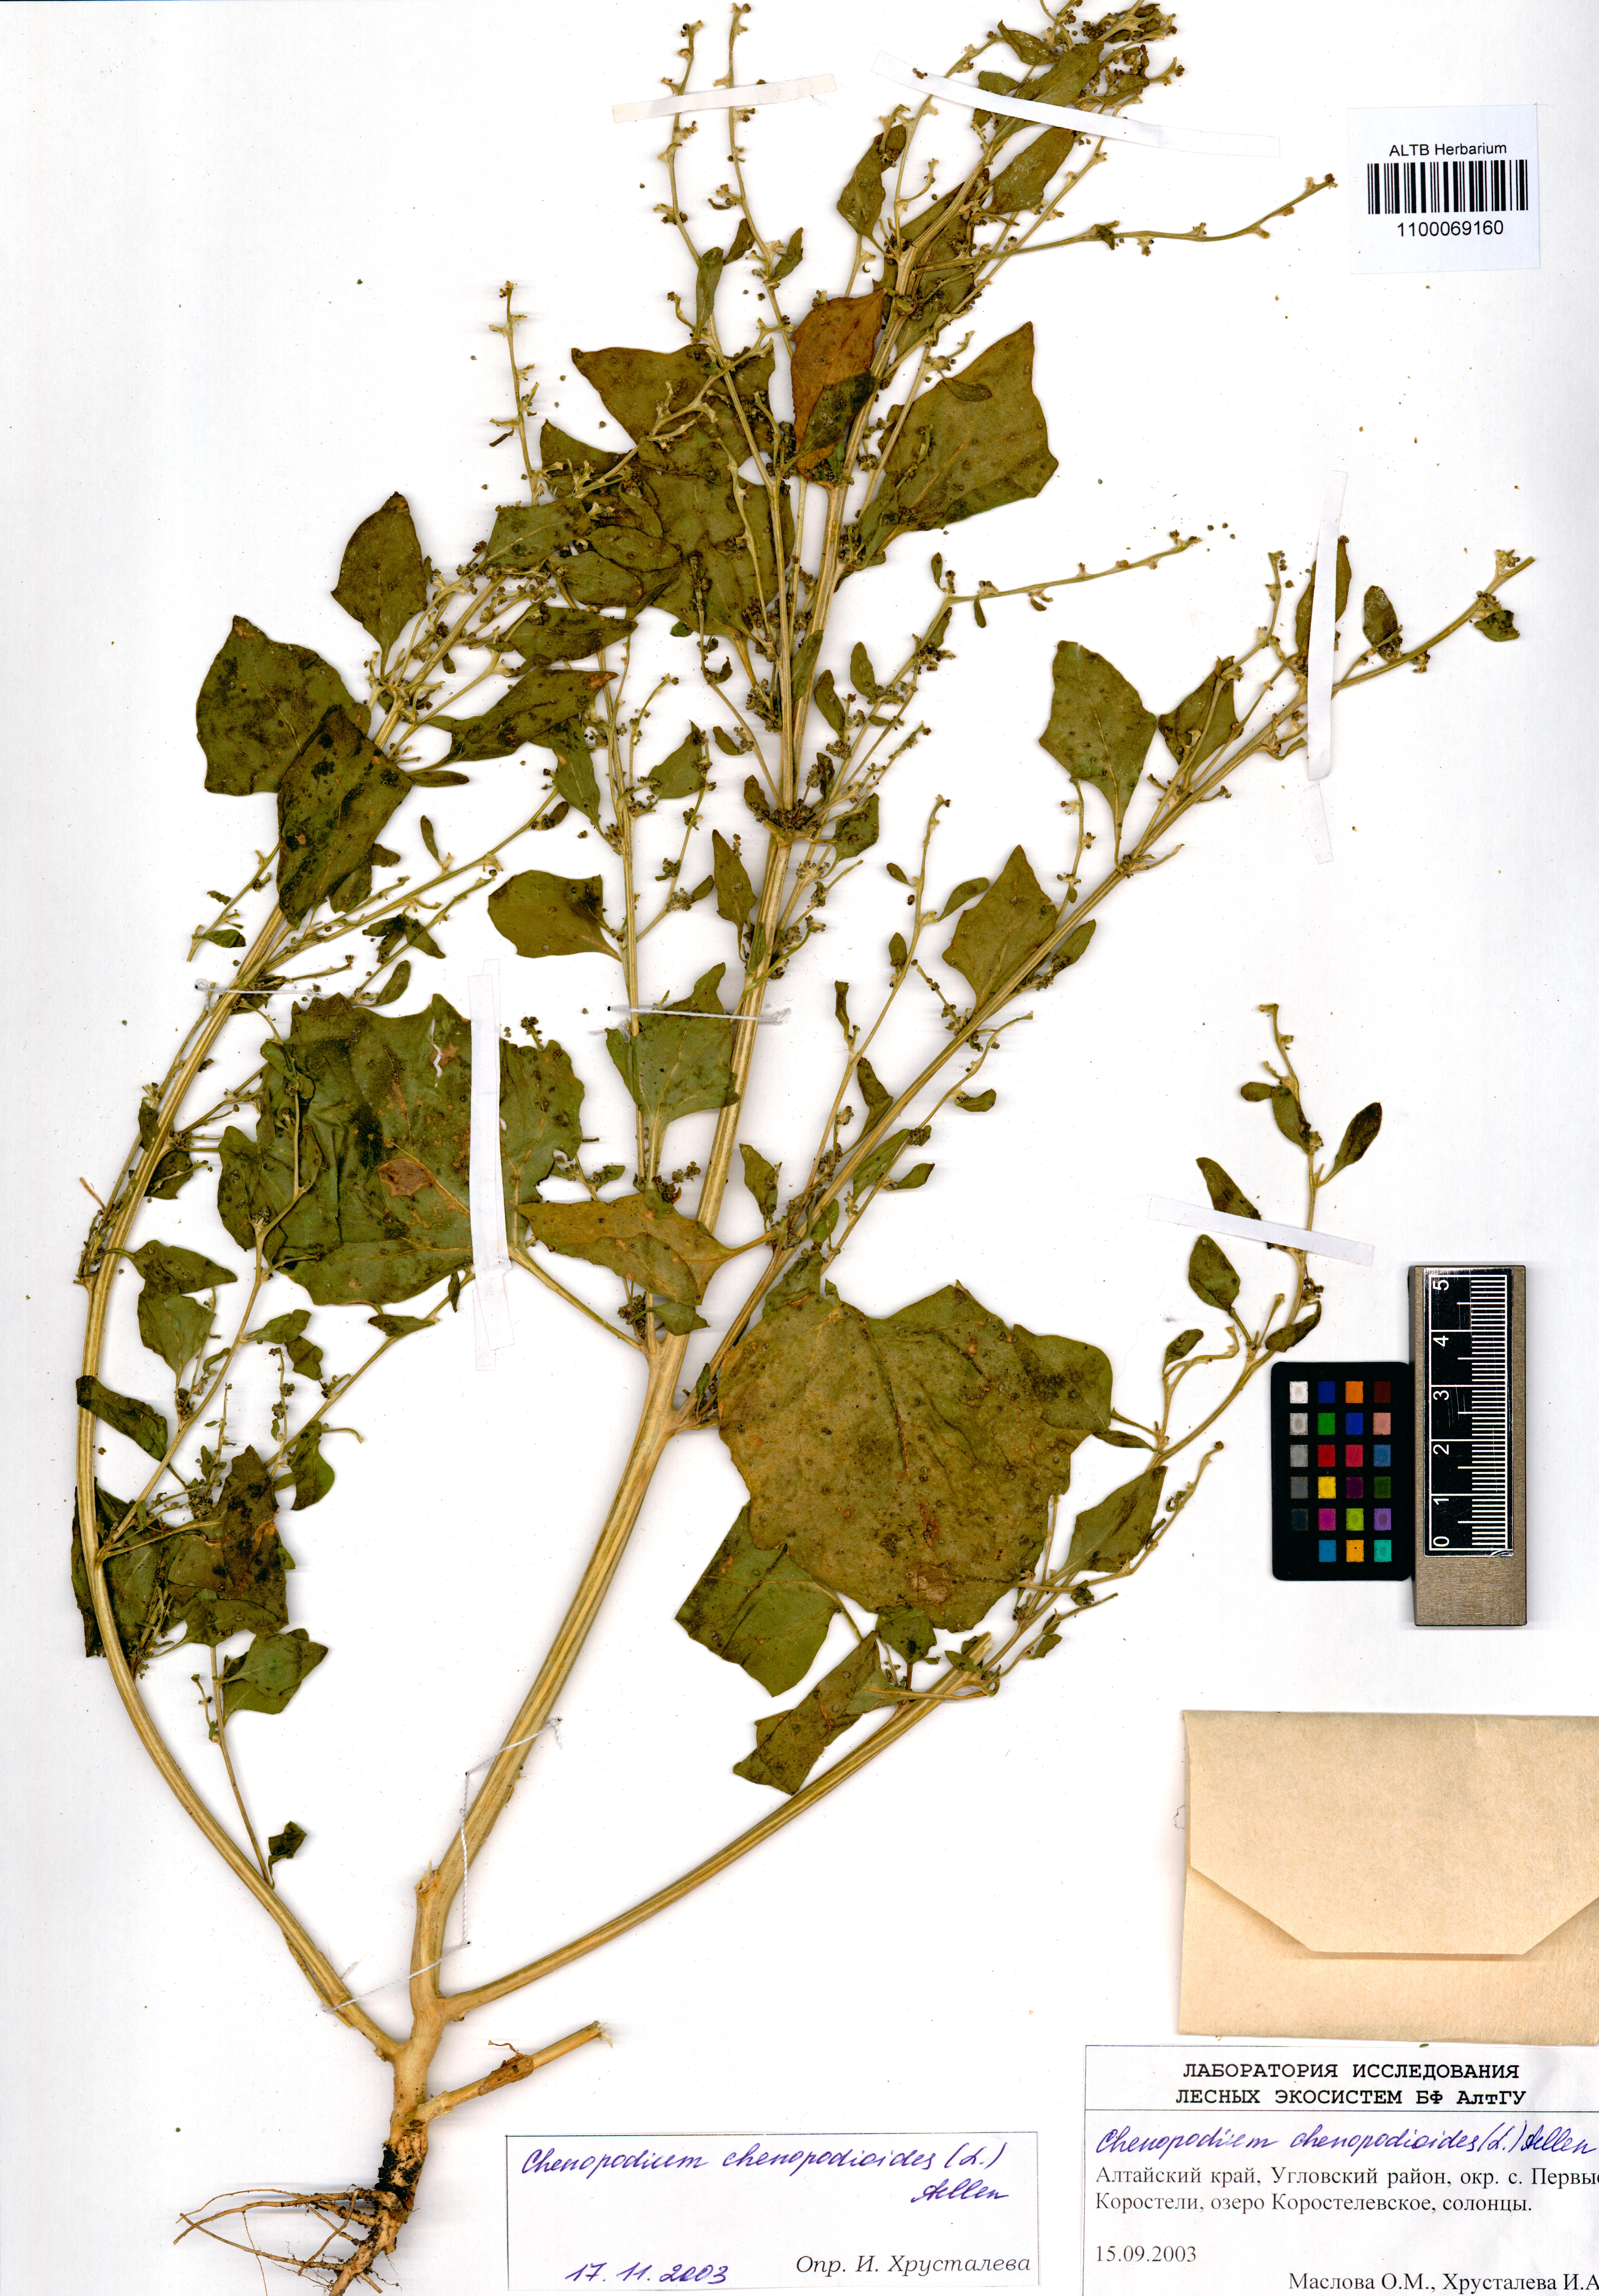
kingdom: Plantae
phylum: Tracheophyta
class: Magnoliopsida
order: Caryophyllales
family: Amaranthaceae
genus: Oxybasis
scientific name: Oxybasis chenopodioides
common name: Saltmarsh goosefoot
